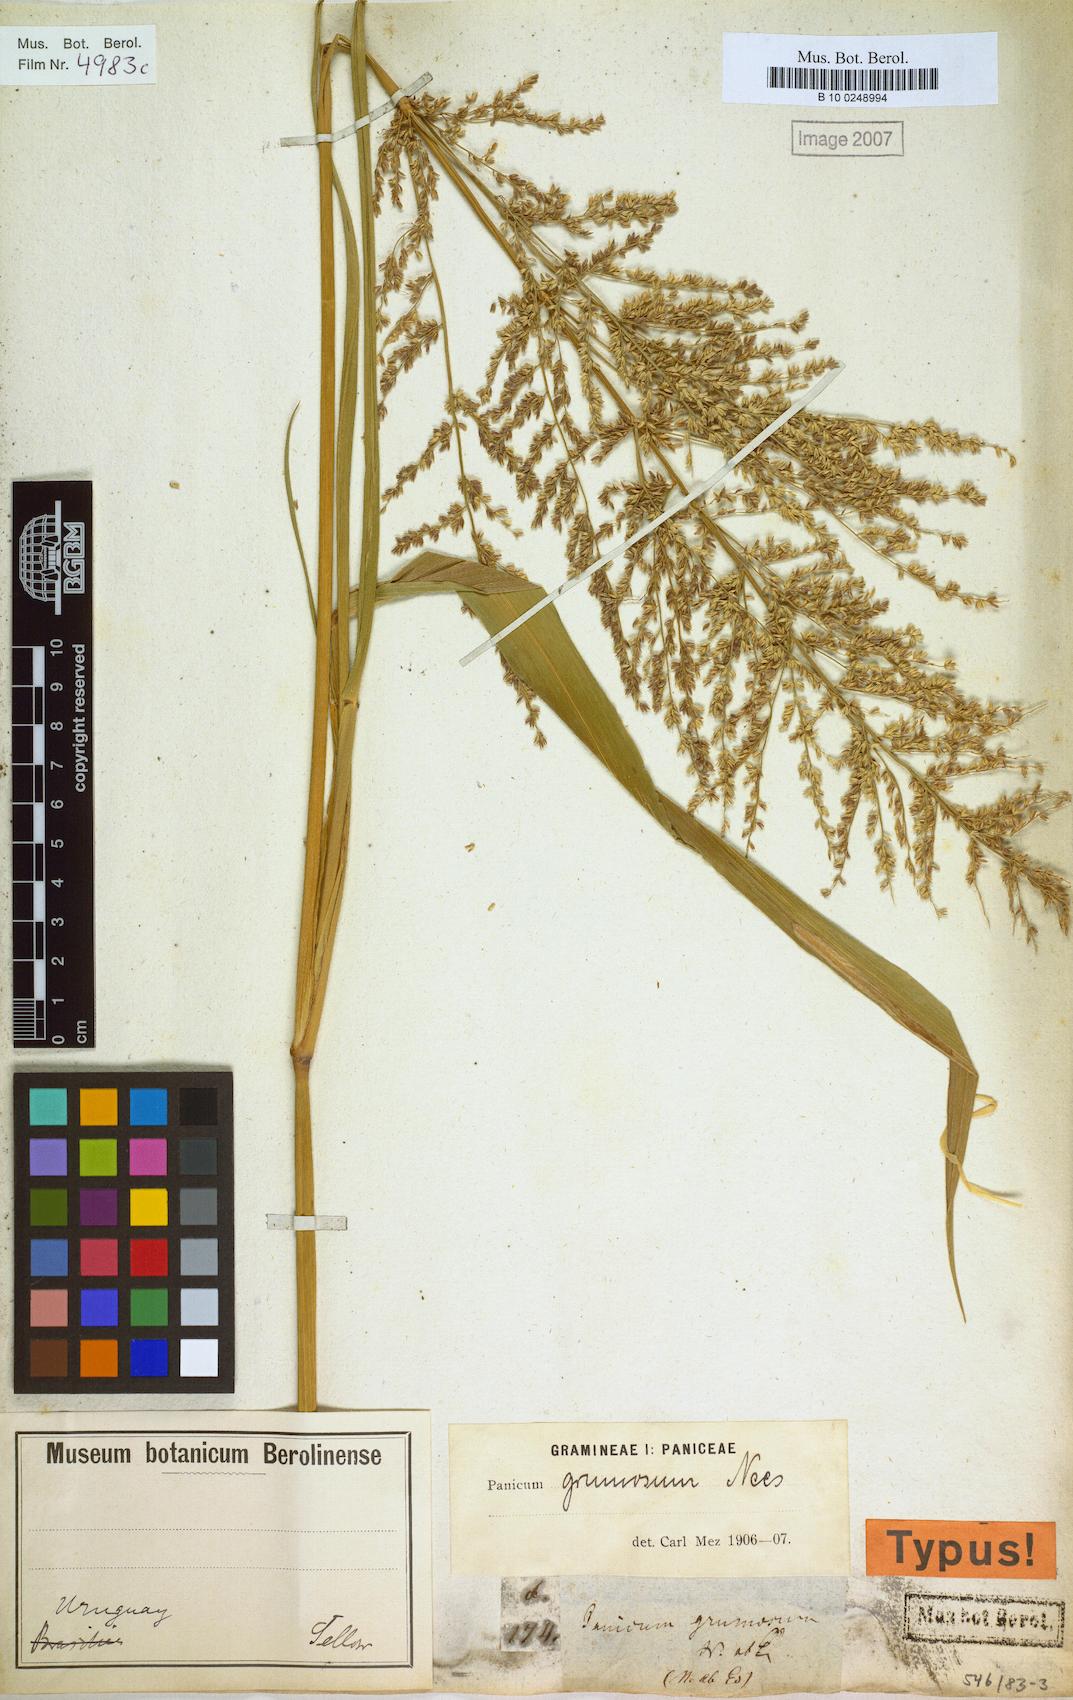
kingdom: Plantae
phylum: Tracheophyta
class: Liliopsida
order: Poales
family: Poaceae
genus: Hymenachne
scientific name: Hymenachne grumosa
